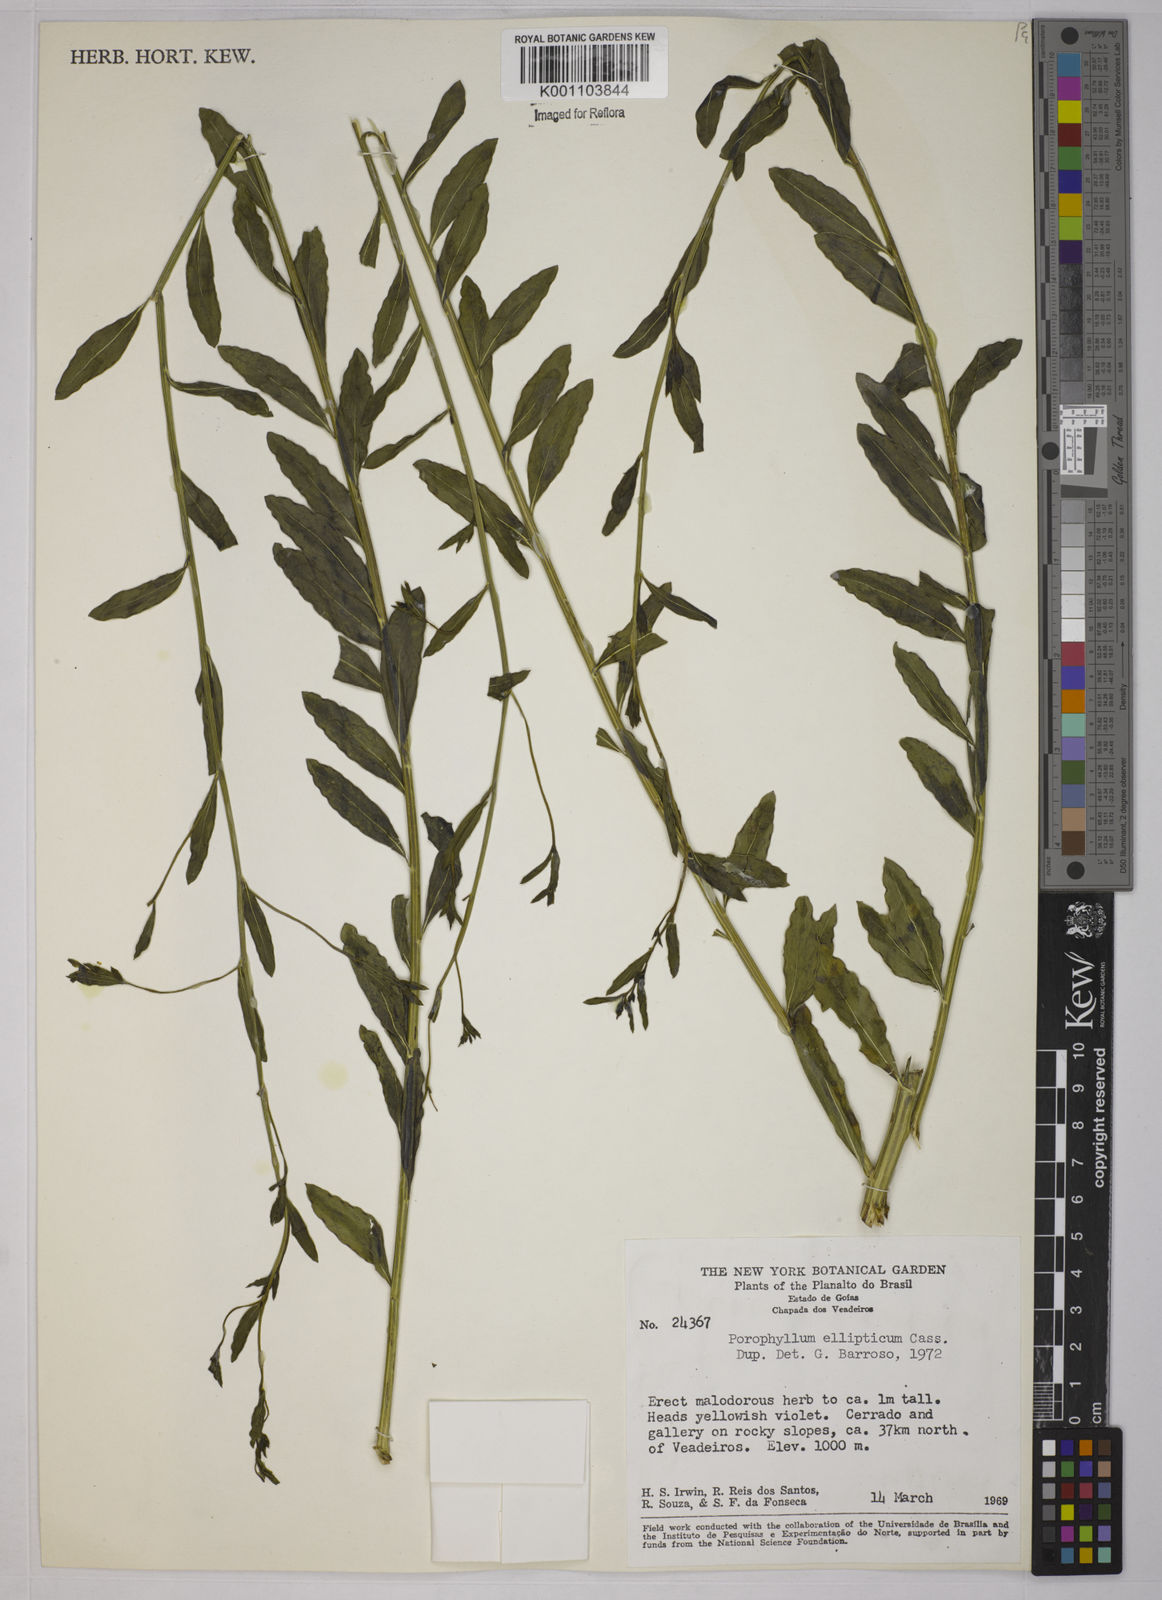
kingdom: Plantae
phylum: Tracheophyta
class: Magnoliopsida
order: Asterales
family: Asteraceae
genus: Porophyllum
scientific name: Porophyllum ruderale
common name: Yerba porosa
